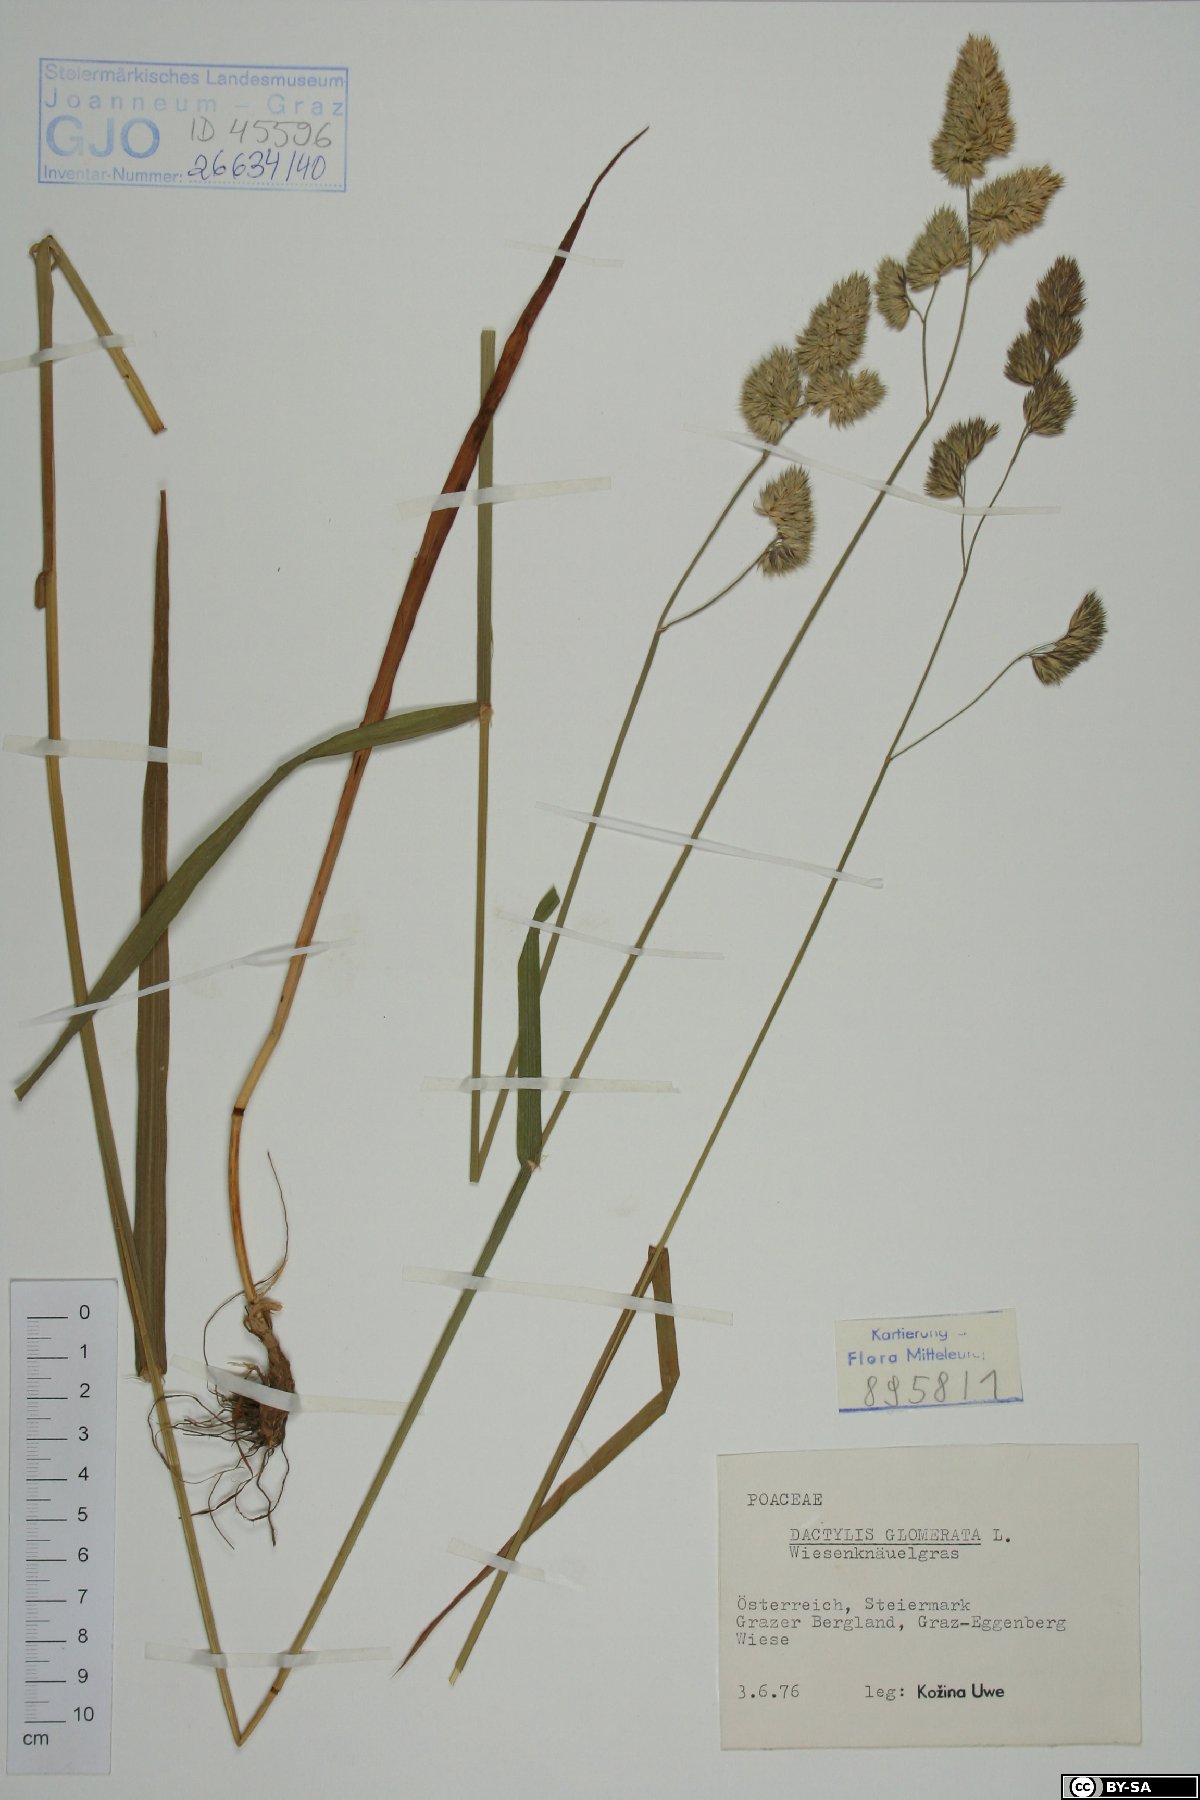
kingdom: Plantae
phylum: Tracheophyta
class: Liliopsida
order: Poales
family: Poaceae
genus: Dactylis
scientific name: Dactylis glomerata
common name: Orchardgrass
